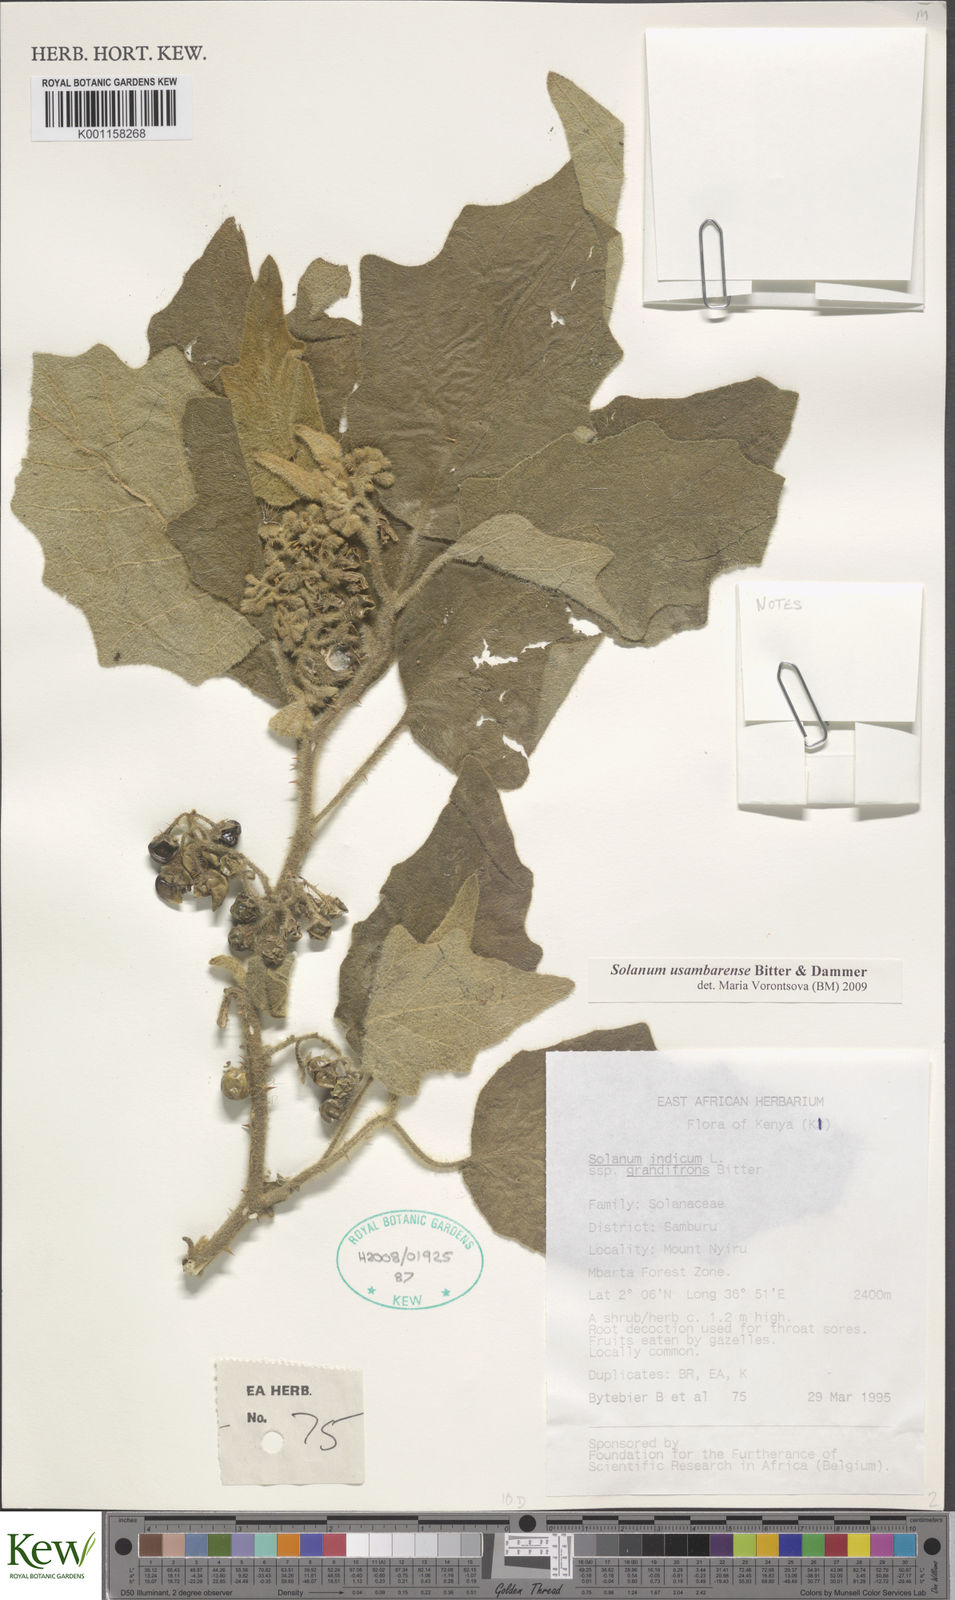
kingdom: Plantae
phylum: Tracheophyta
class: Magnoliopsida
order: Solanales
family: Solanaceae
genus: Solanum
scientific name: Solanum usambarense
